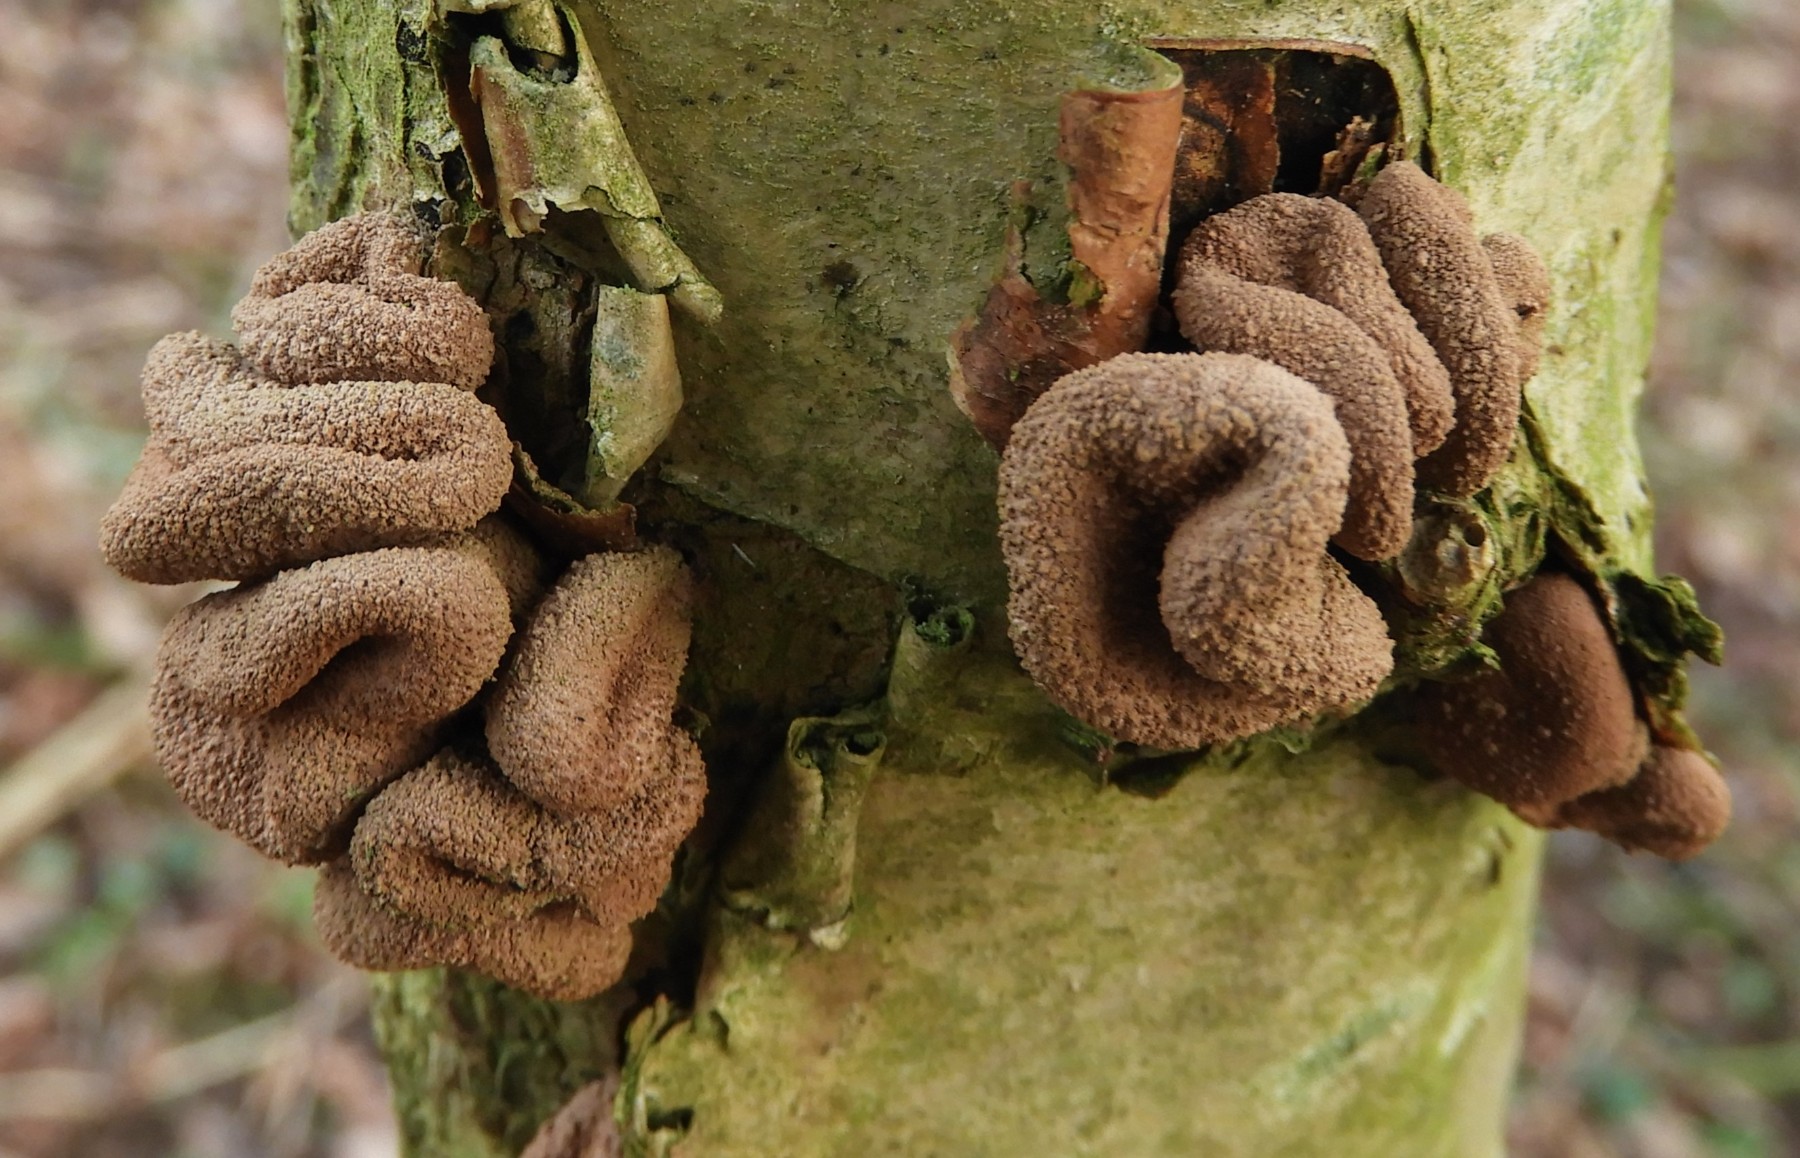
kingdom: Fungi
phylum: Ascomycota
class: Leotiomycetes
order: Helotiales
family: Cenangiaceae
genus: Encoelia
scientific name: Encoelia furfuracea
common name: hassel-læderskive
